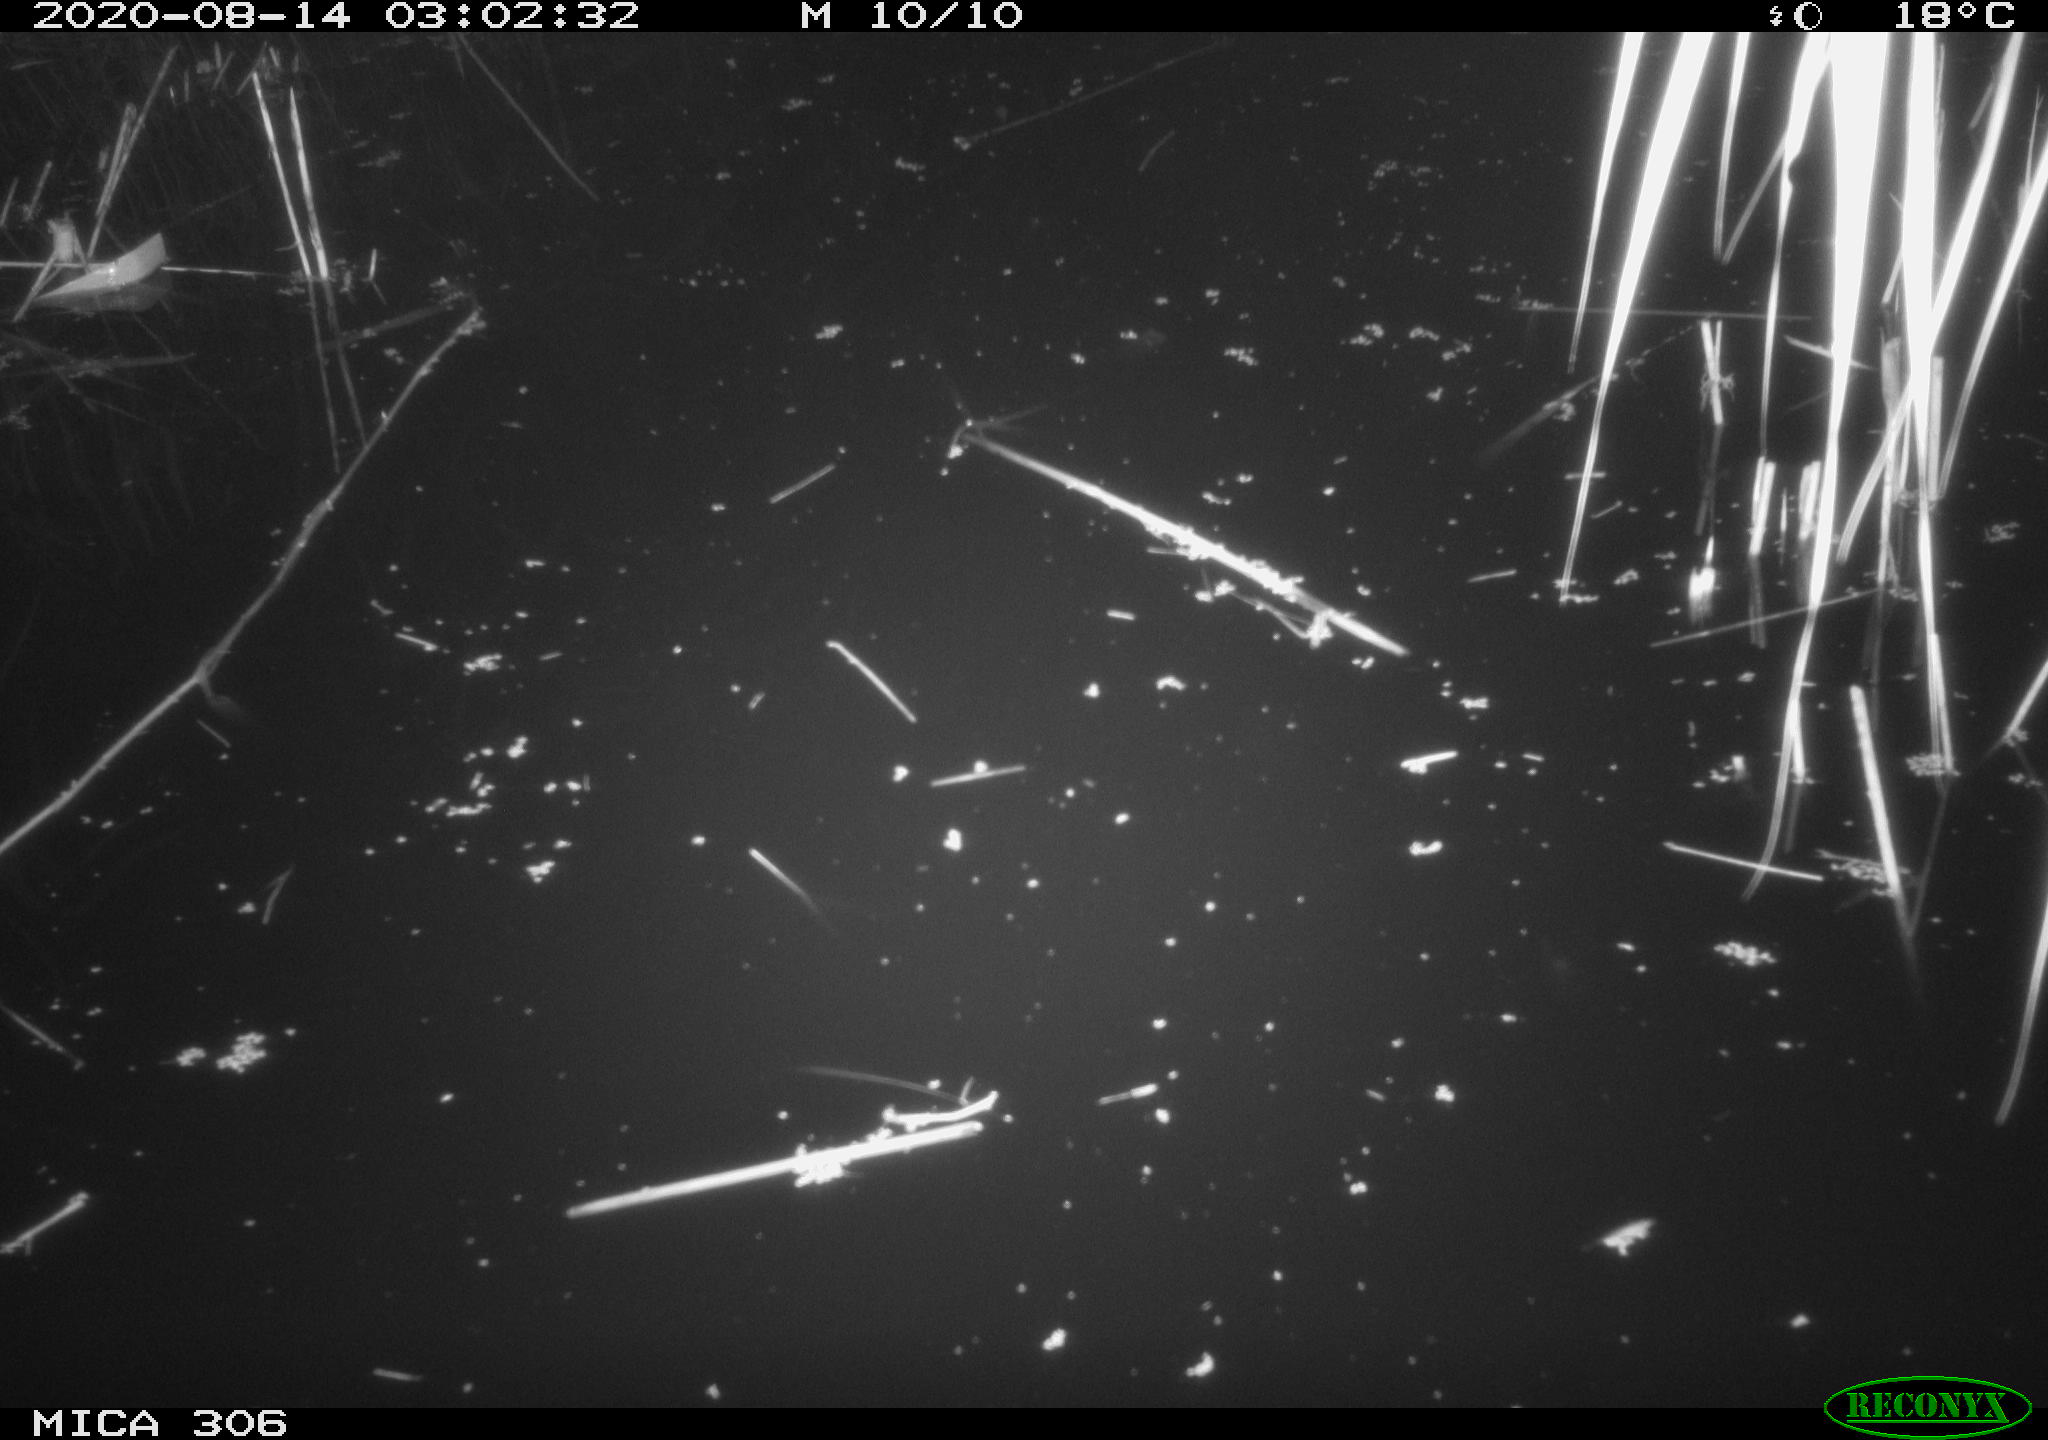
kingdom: Animalia
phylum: Chordata
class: Mammalia
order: Rodentia
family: Muridae
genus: Rattus
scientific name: Rattus norvegicus
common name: Brown rat
